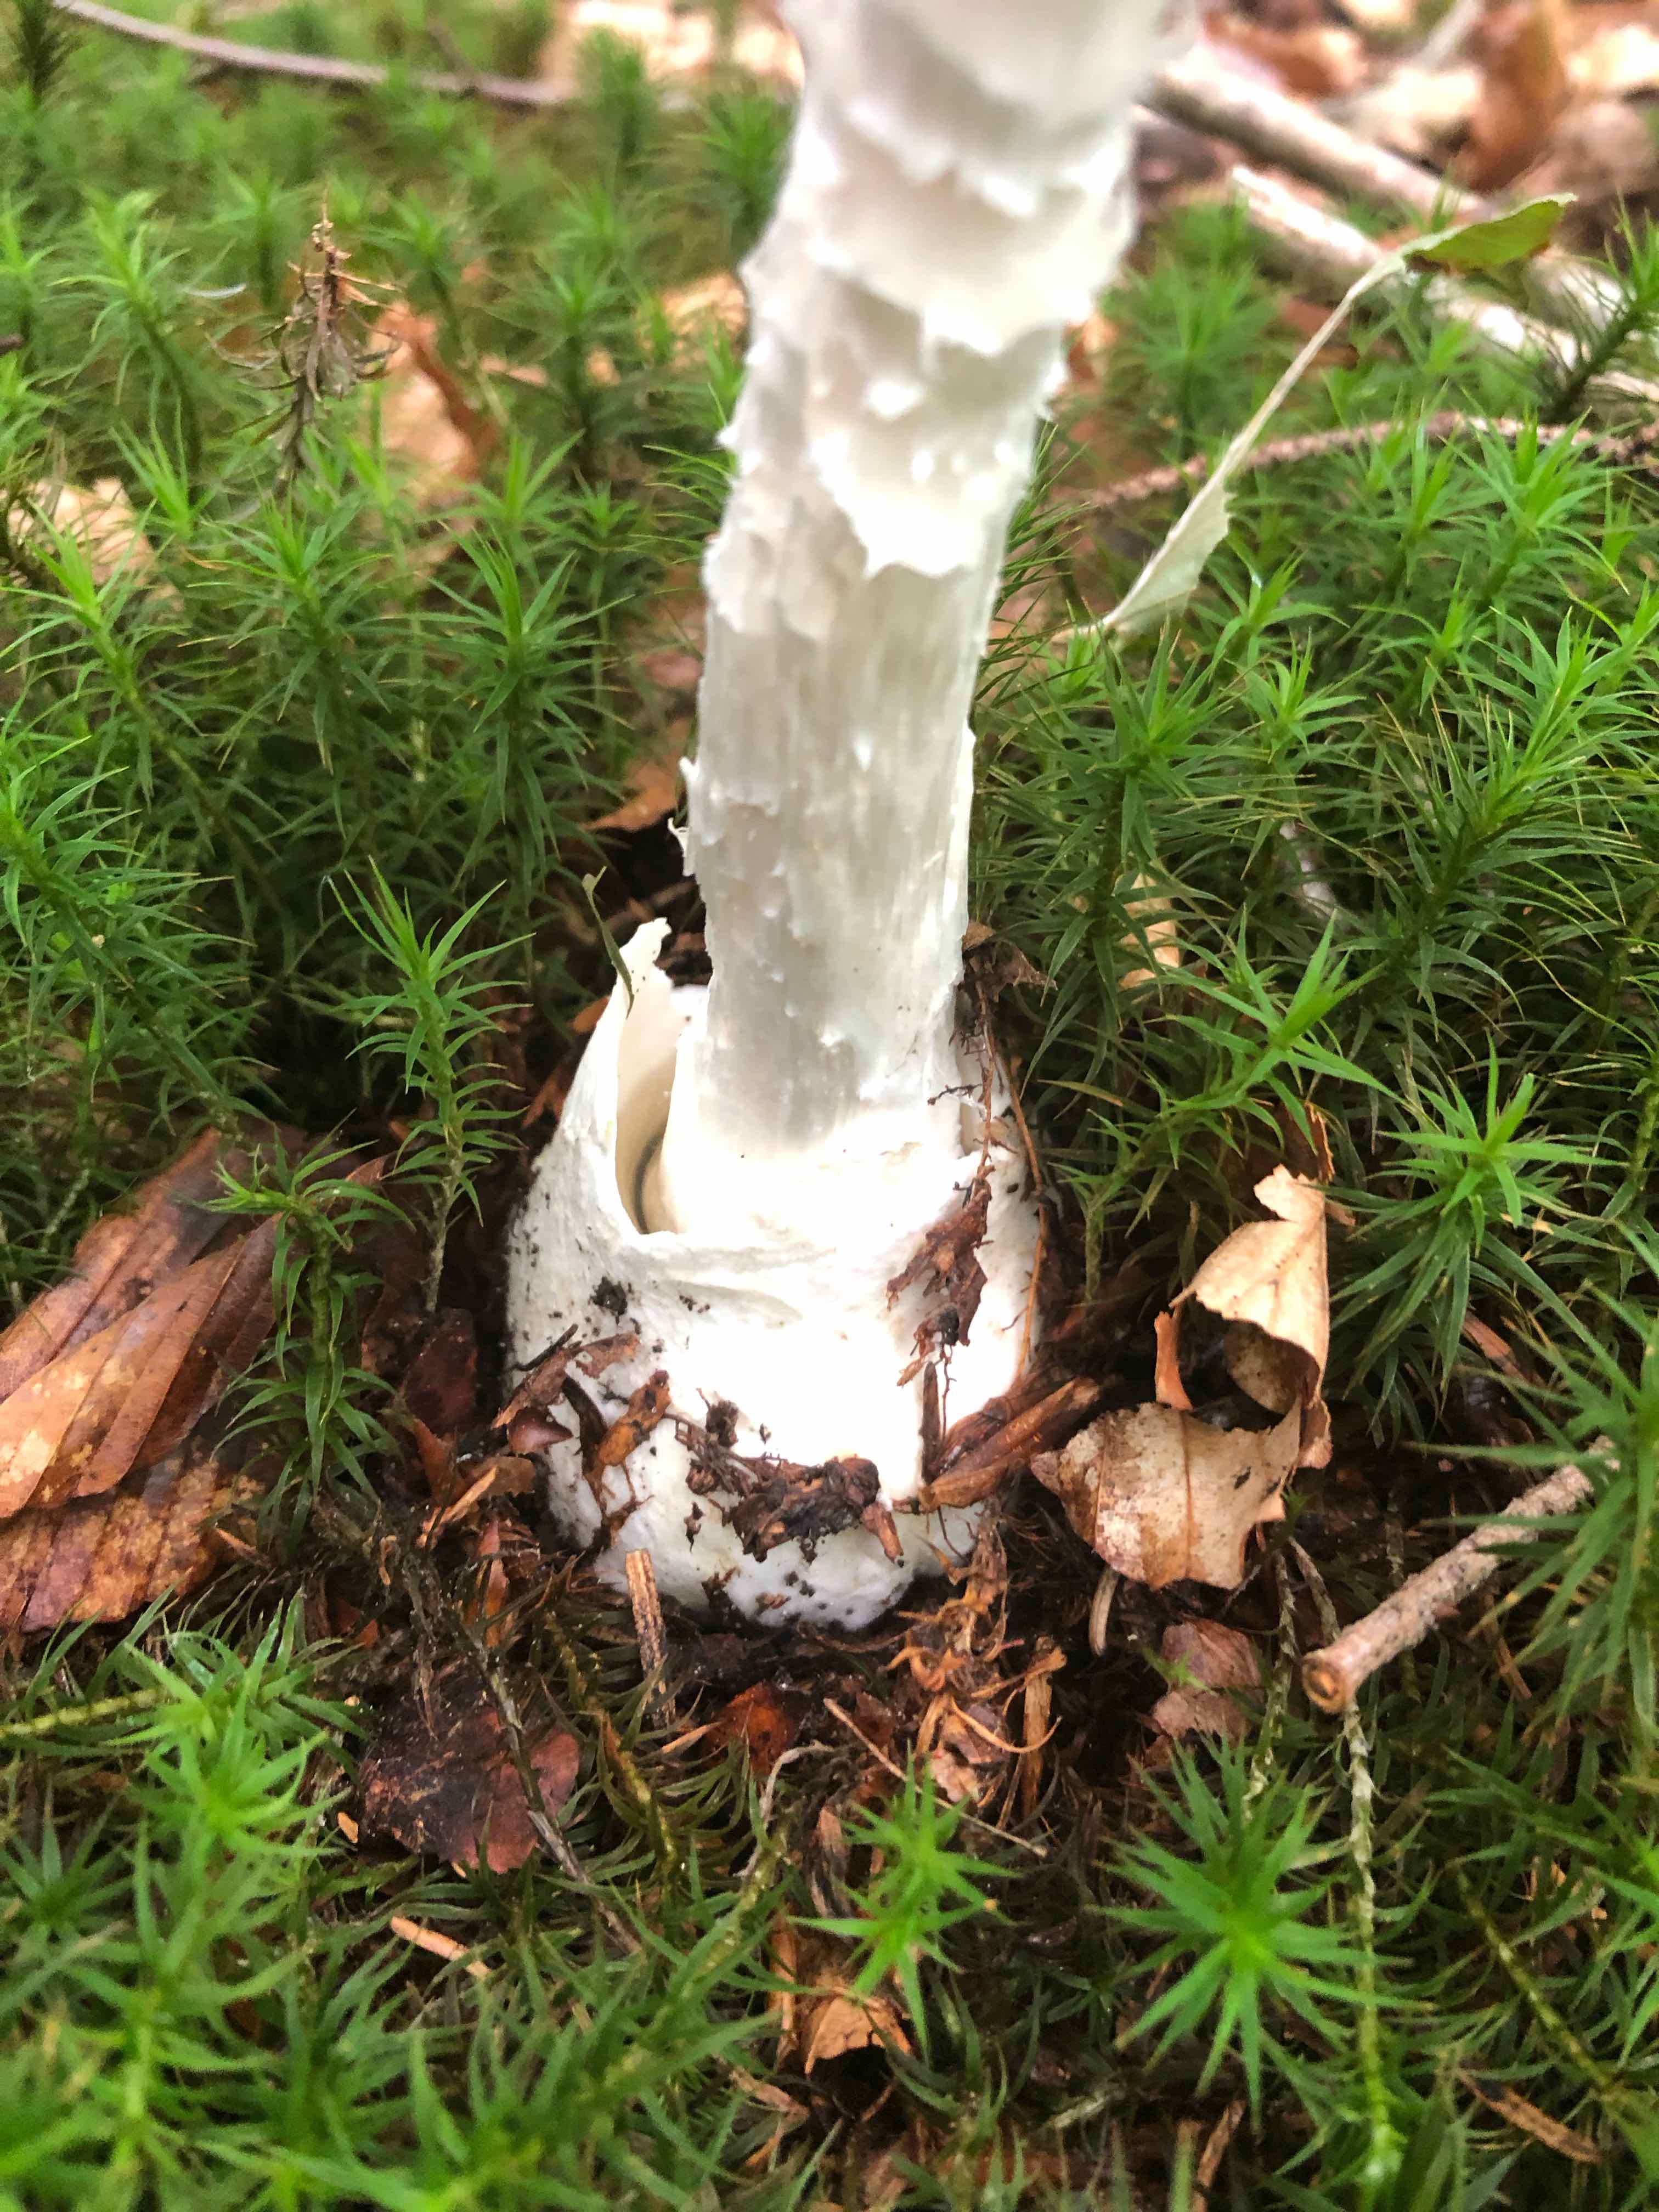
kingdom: Fungi
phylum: Basidiomycota
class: Agaricomycetes
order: Agaricales
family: Amanitaceae
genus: Amanita
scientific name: Amanita virosa
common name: snehvid fluesvamp
